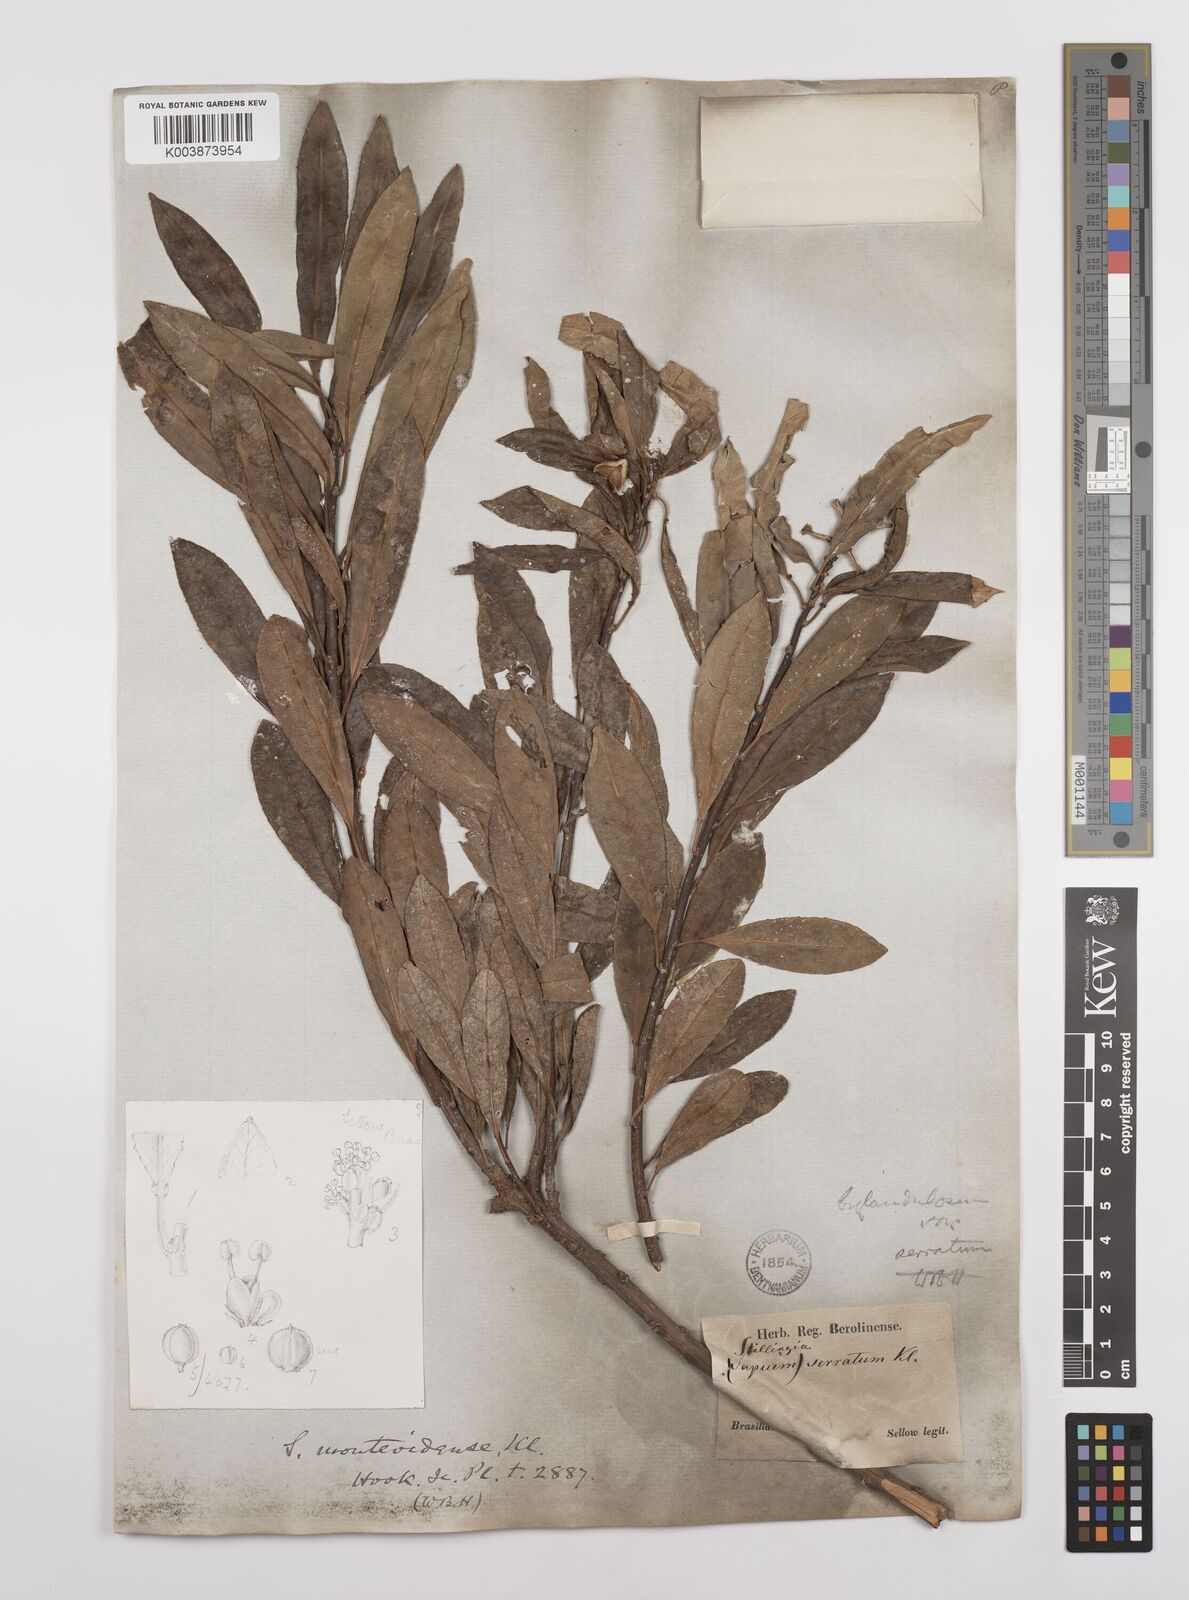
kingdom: Plantae
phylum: Tracheophyta
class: Magnoliopsida
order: Malpighiales
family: Euphorbiaceae
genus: Sapium
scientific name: Sapium glandulosum
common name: Milktree
